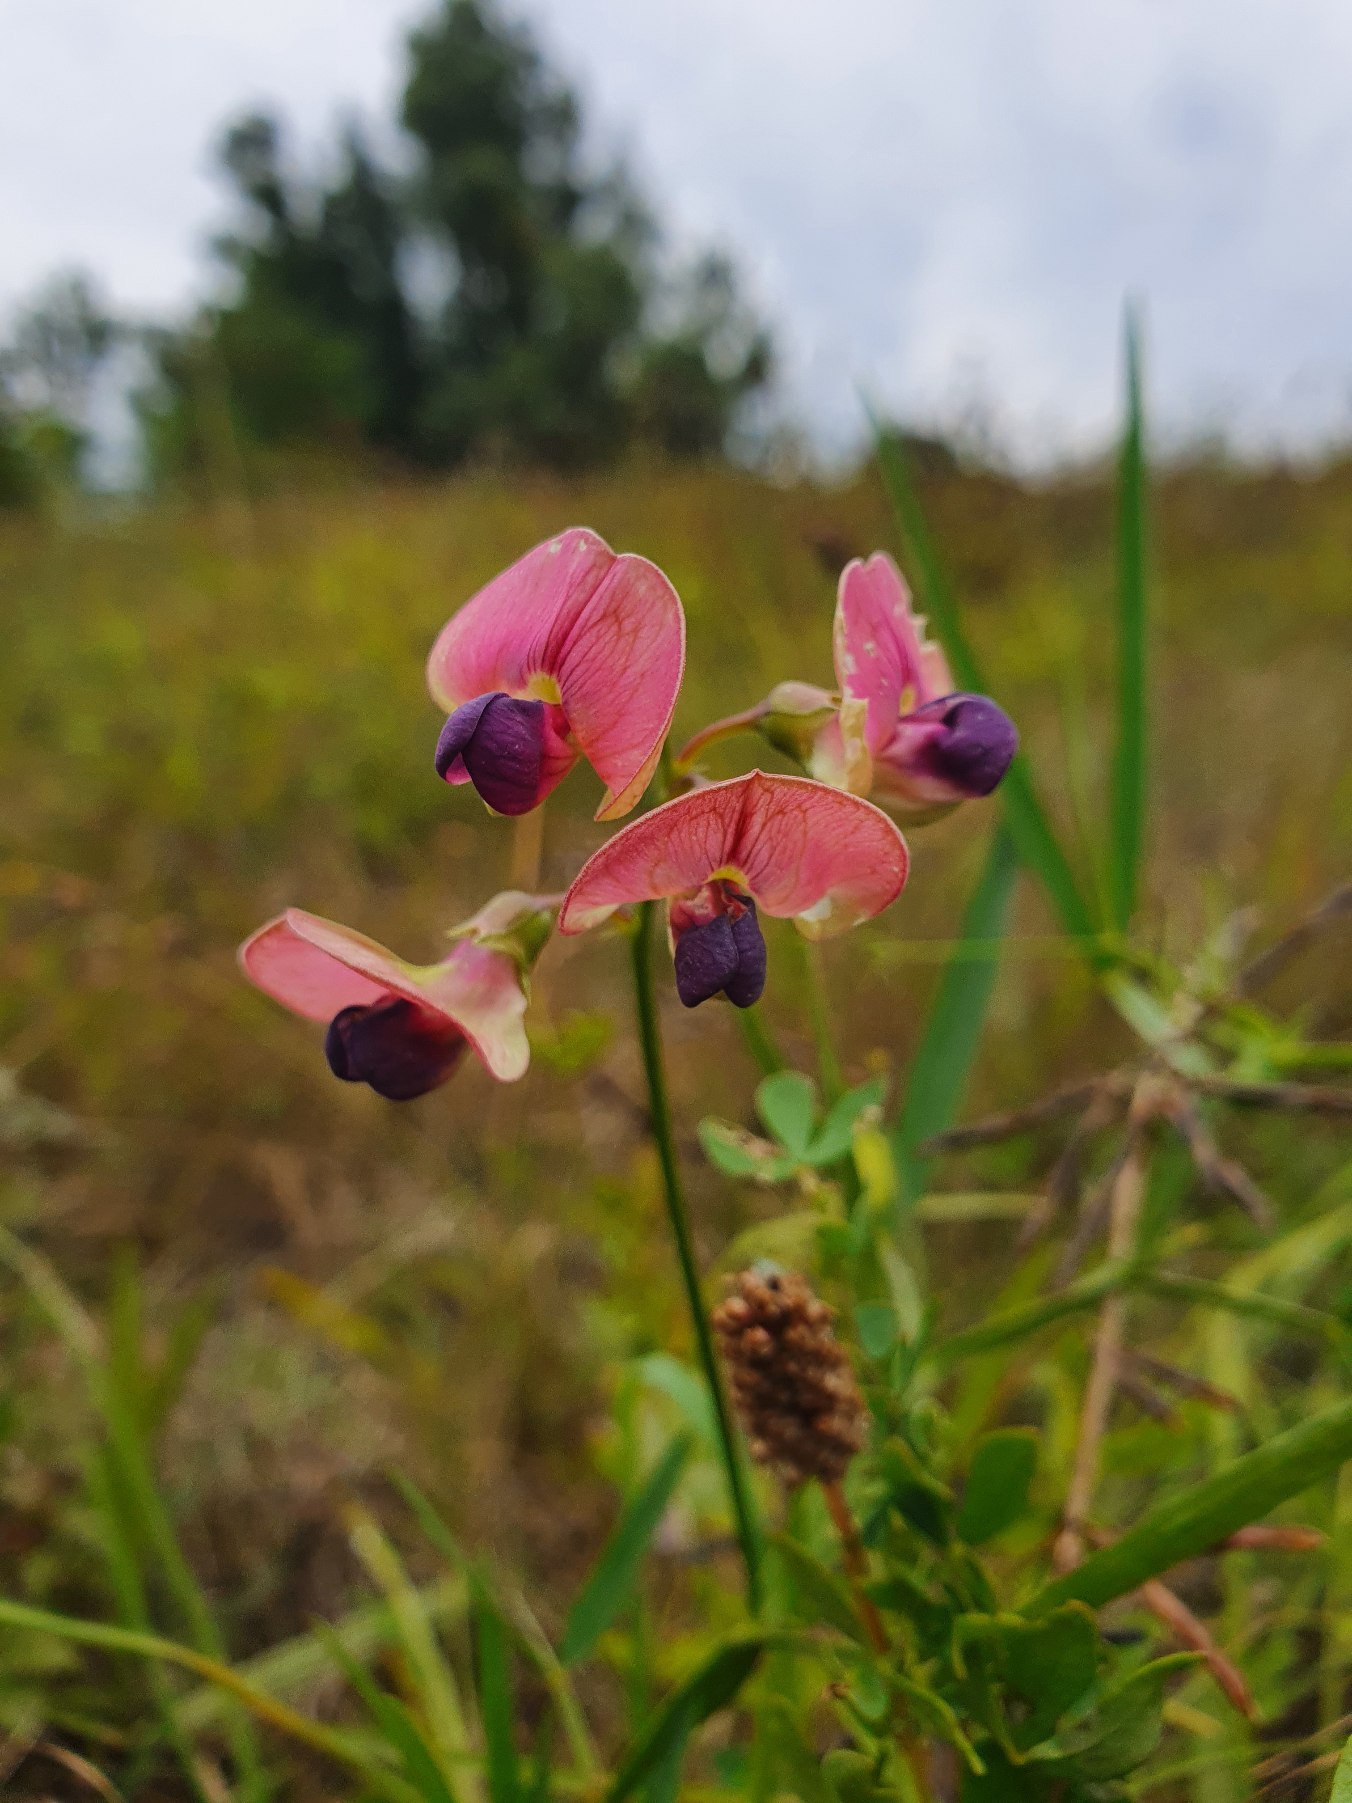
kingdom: Plantae
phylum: Tracheophyta
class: Magnoliopsida
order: Fabales
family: Fabaceae
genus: Lathyrus
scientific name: Lathyrus sylvestris
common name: Skov-fladbælg
